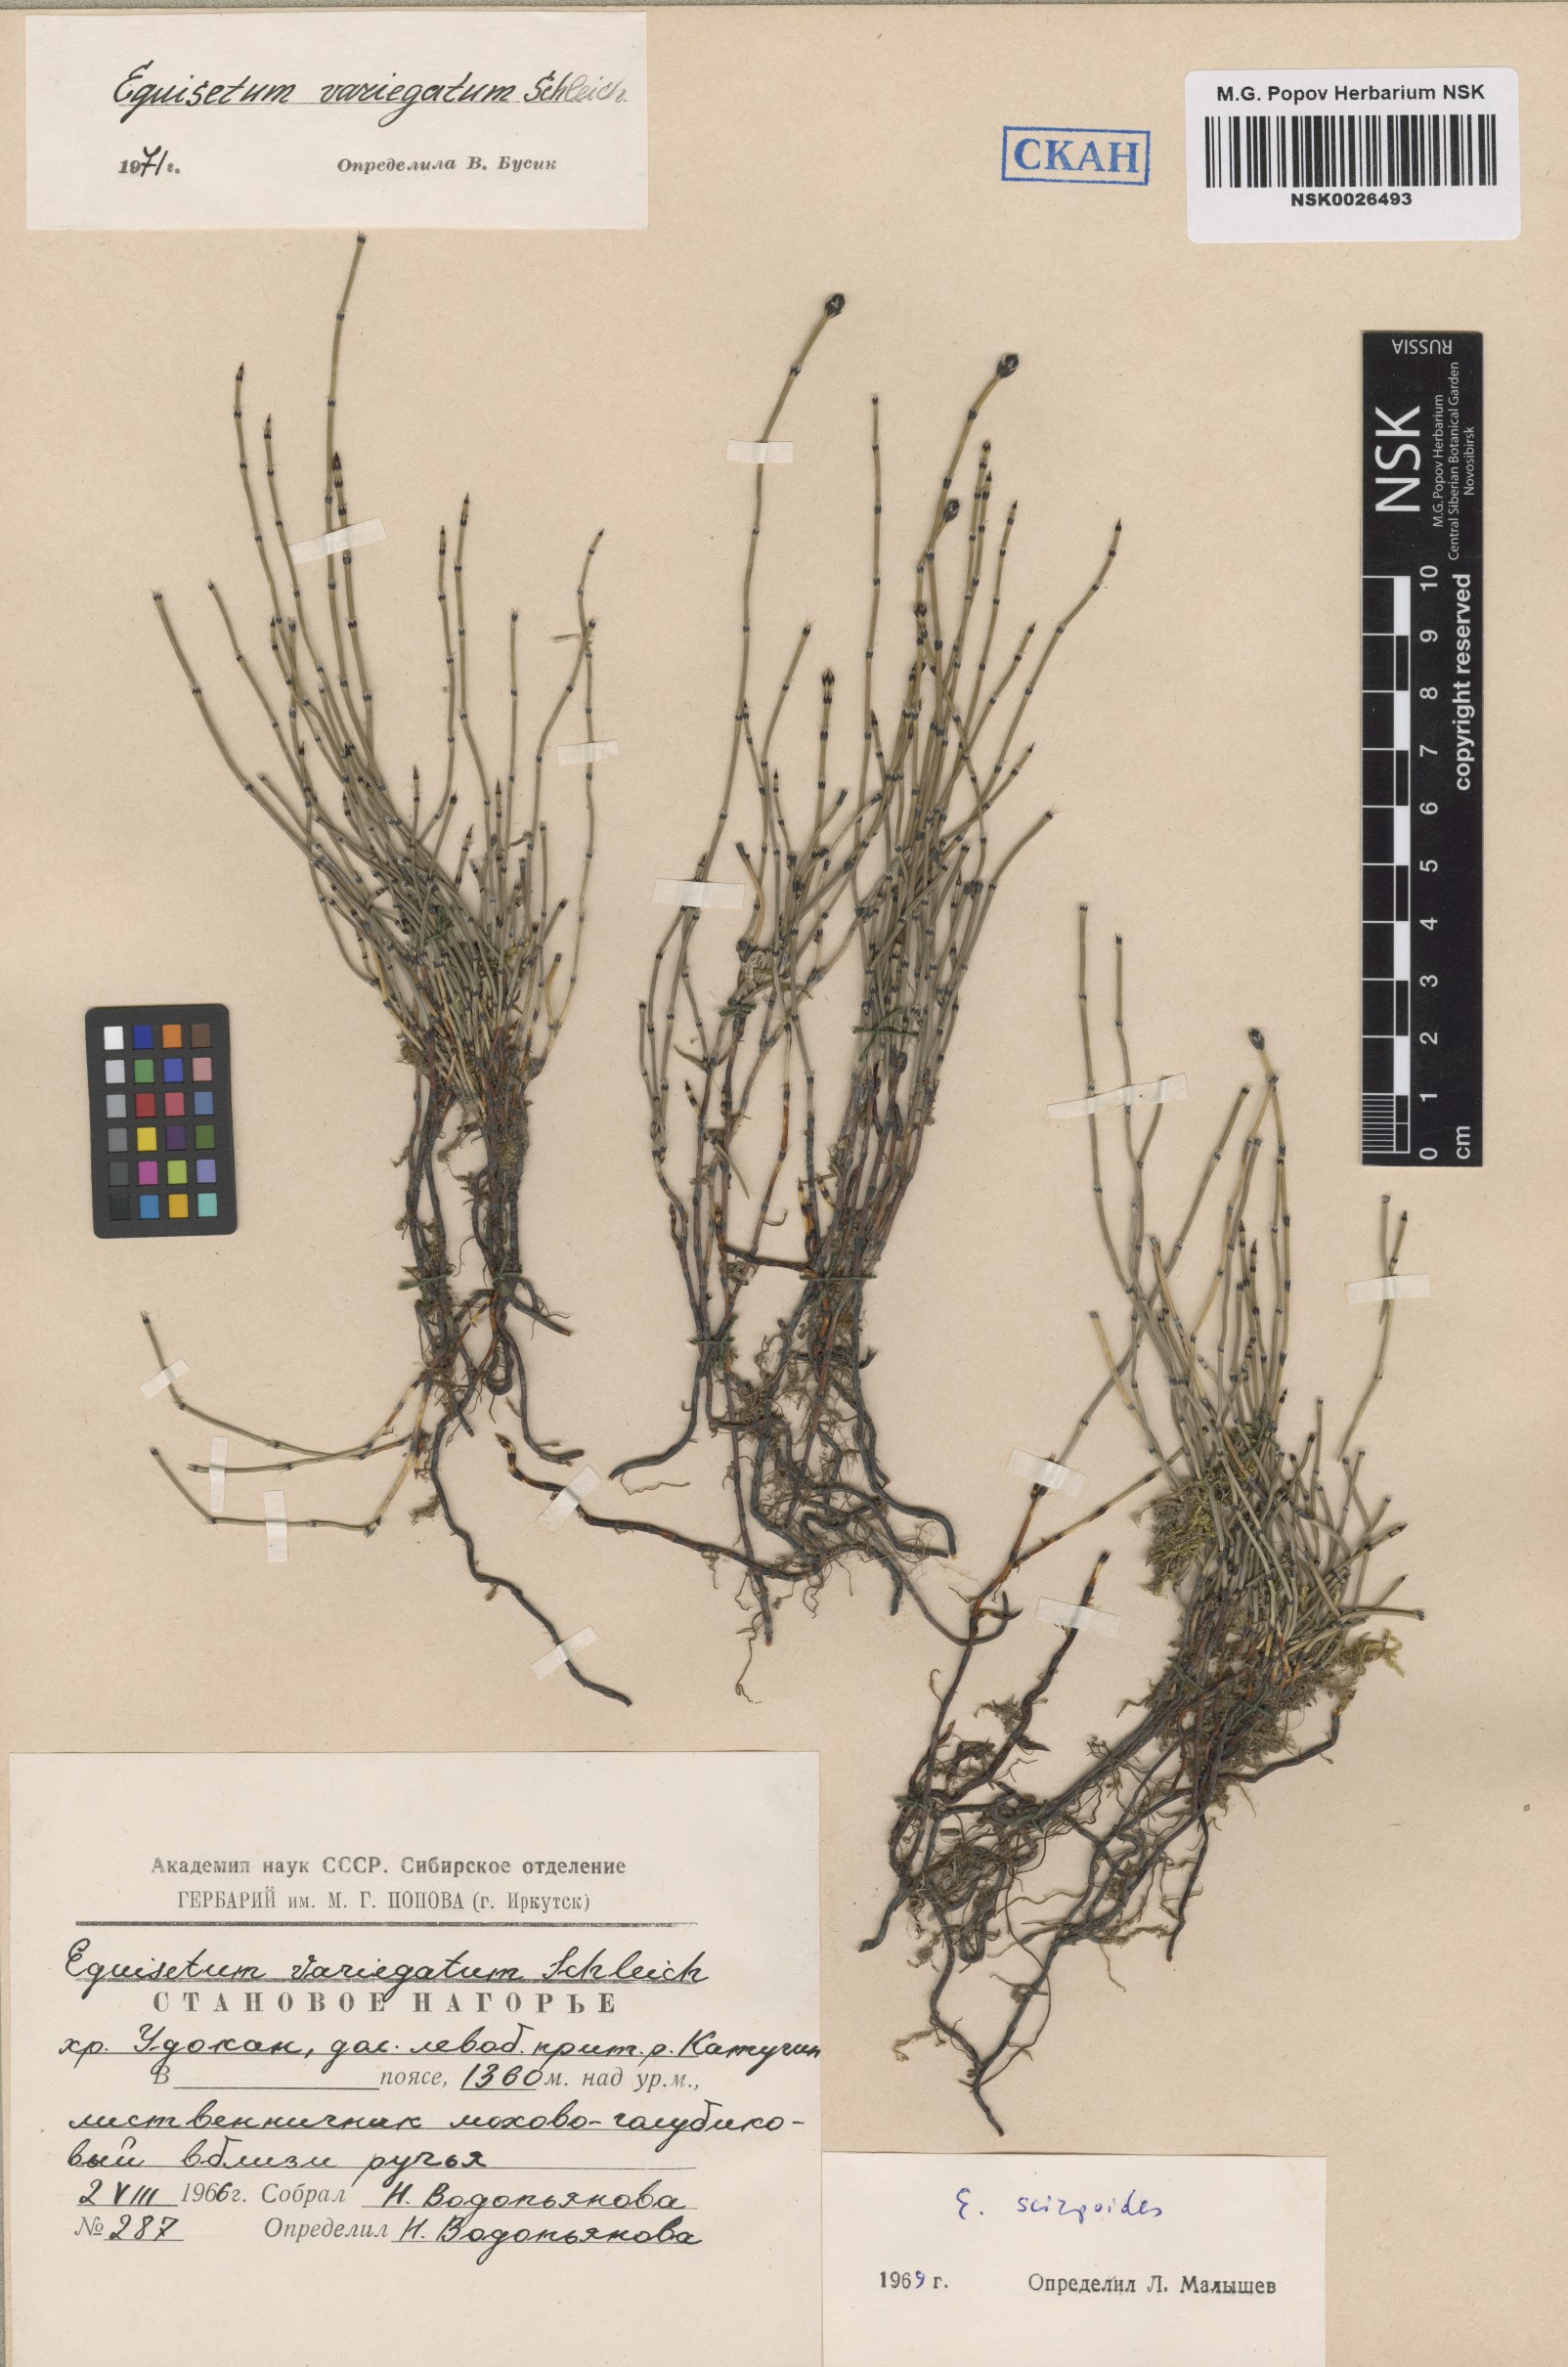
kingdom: Plantae
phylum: Tracheophyta
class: Polypodiopsida
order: Equisetales
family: Equisetaceae
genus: Equisetum
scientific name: Equisetum variegatum
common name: Variegated horsetail
